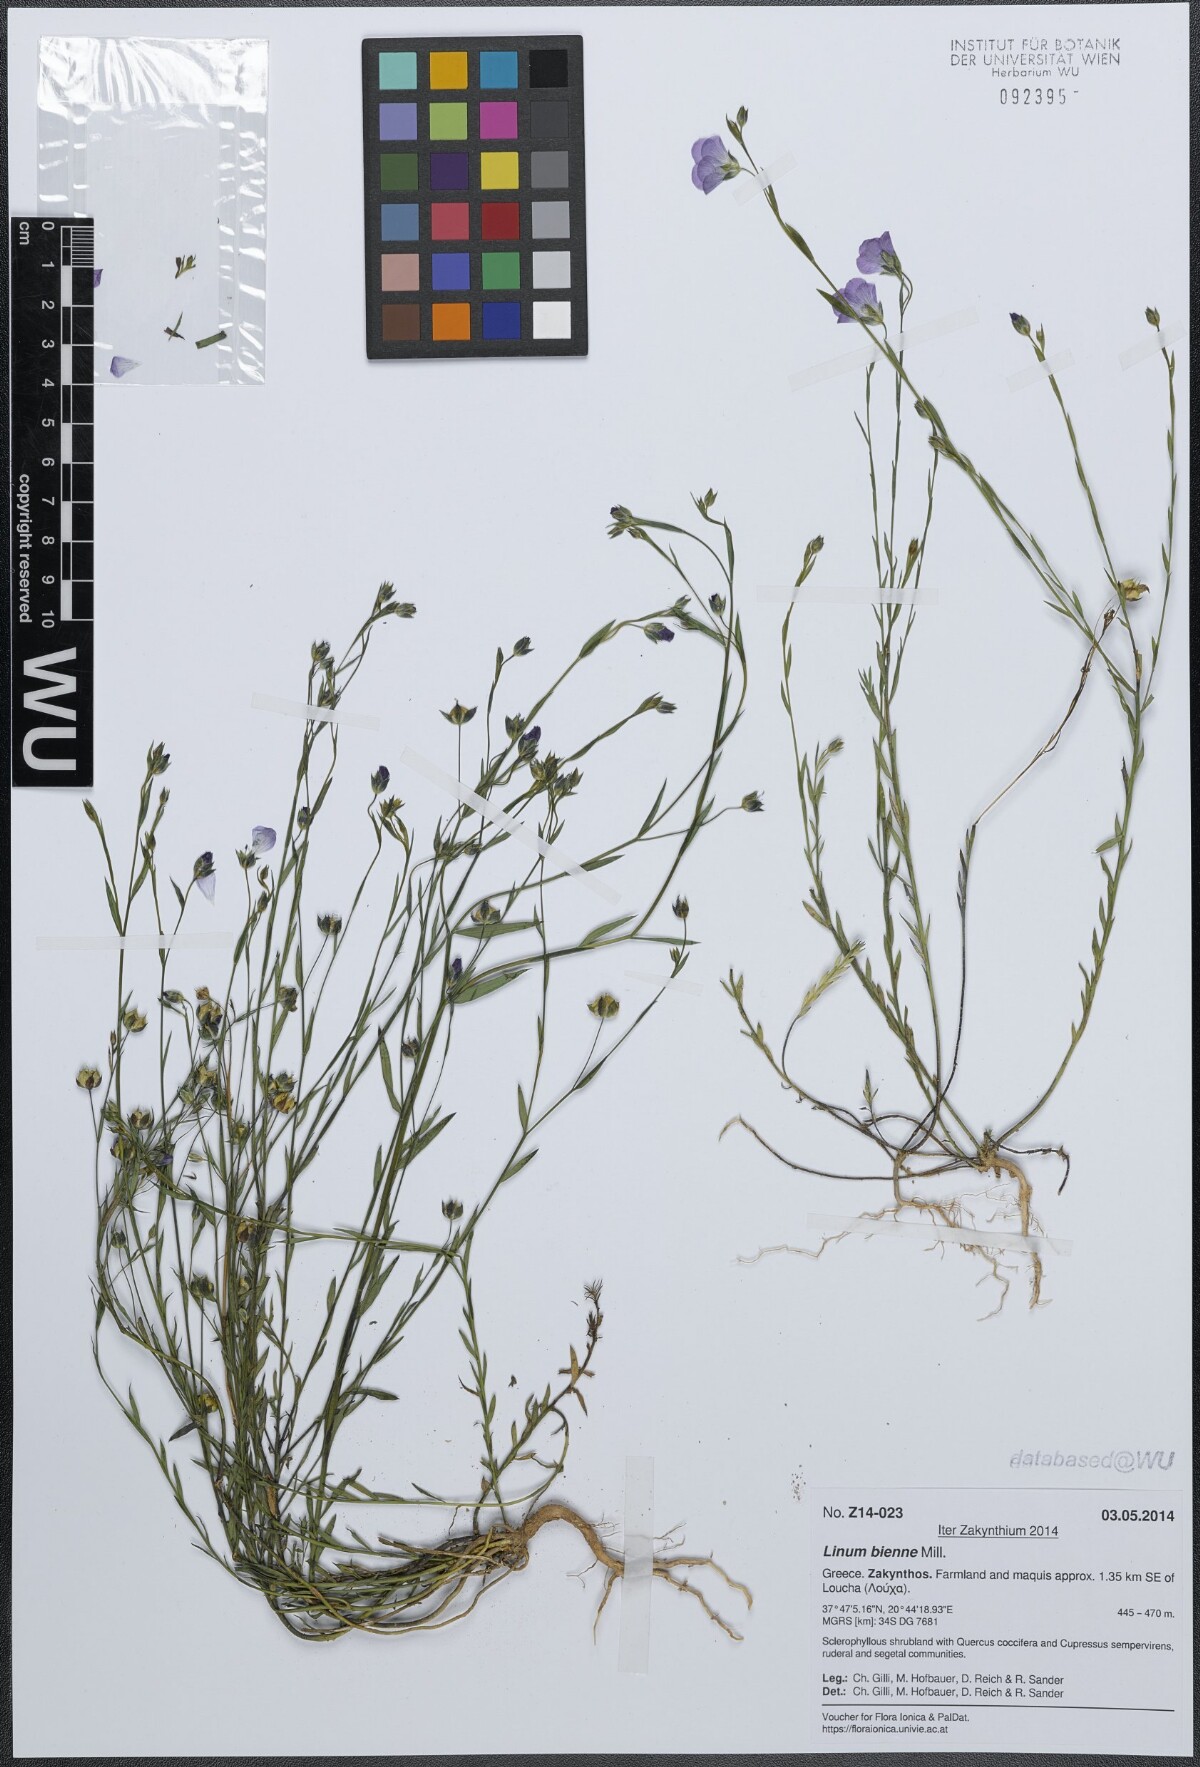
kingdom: Plantae
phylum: Tracheophyta
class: Magnoliopsida
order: Malpighiales
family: Linaceae
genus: Linum
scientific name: Linum bienne
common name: Pale flax
